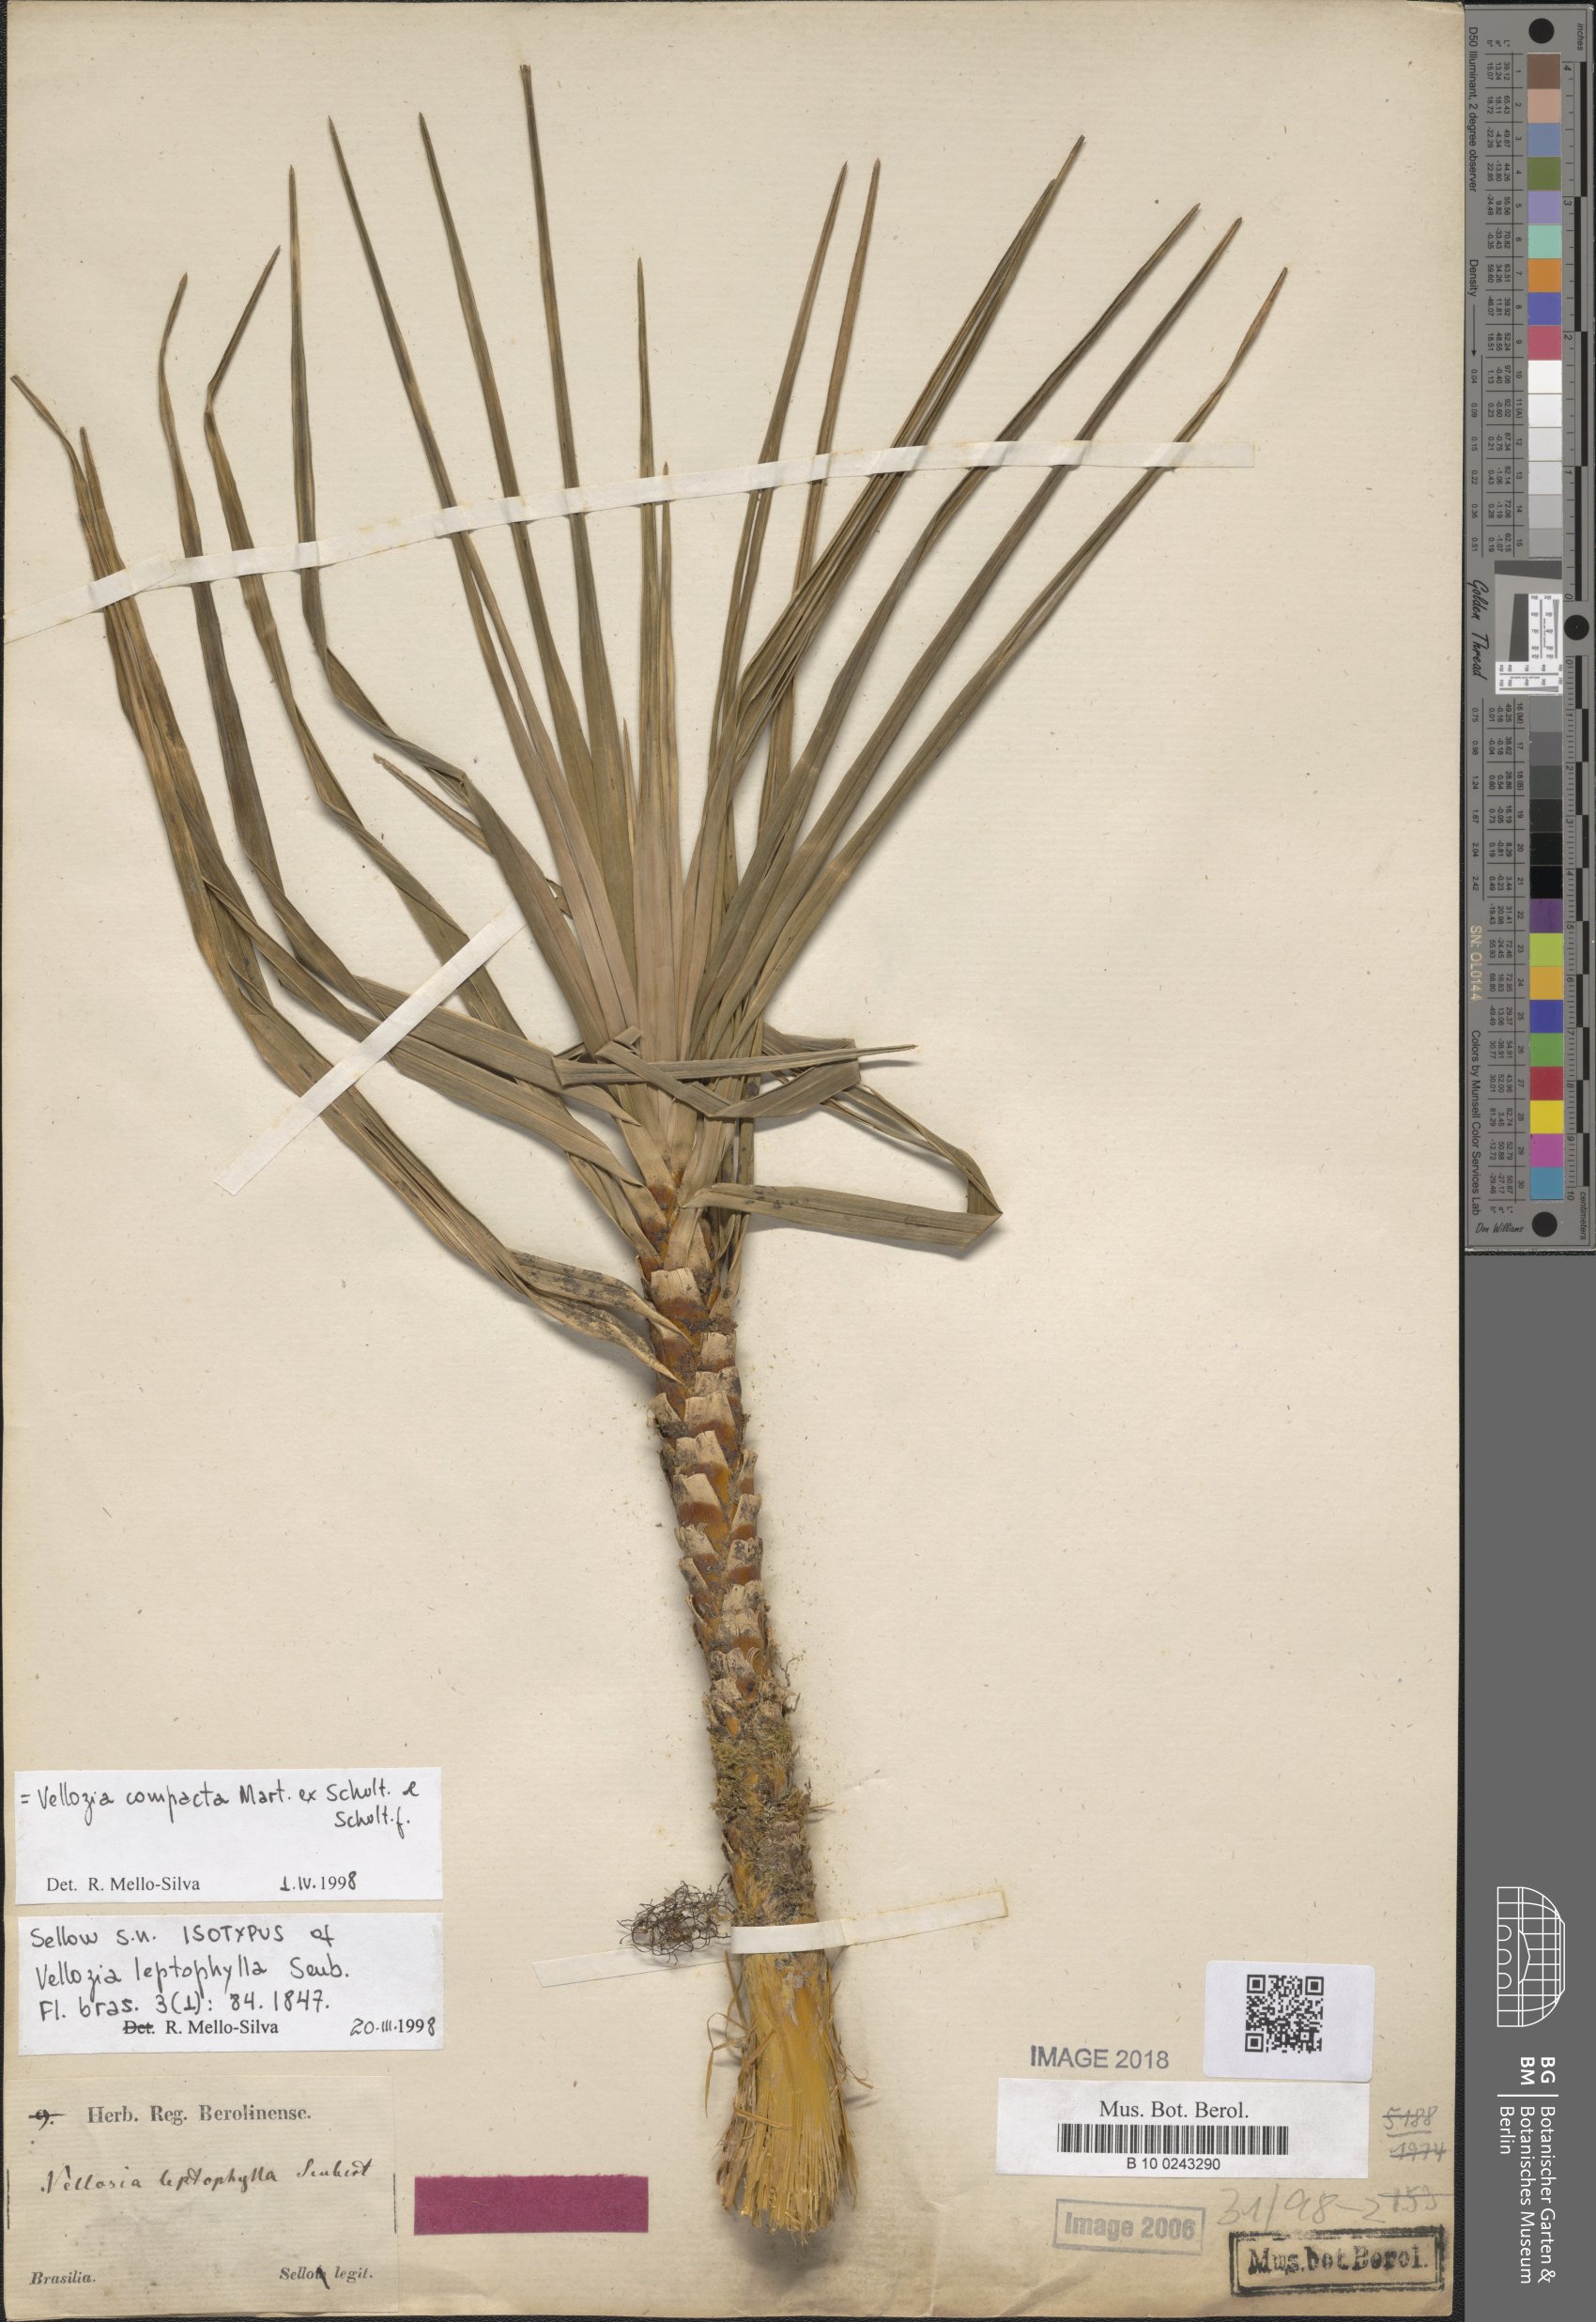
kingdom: Plantae
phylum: Tracheophyta
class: Liliopsida
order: Pandanales
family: Velloziaceae
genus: Vellozia
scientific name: Vellozia compacta
